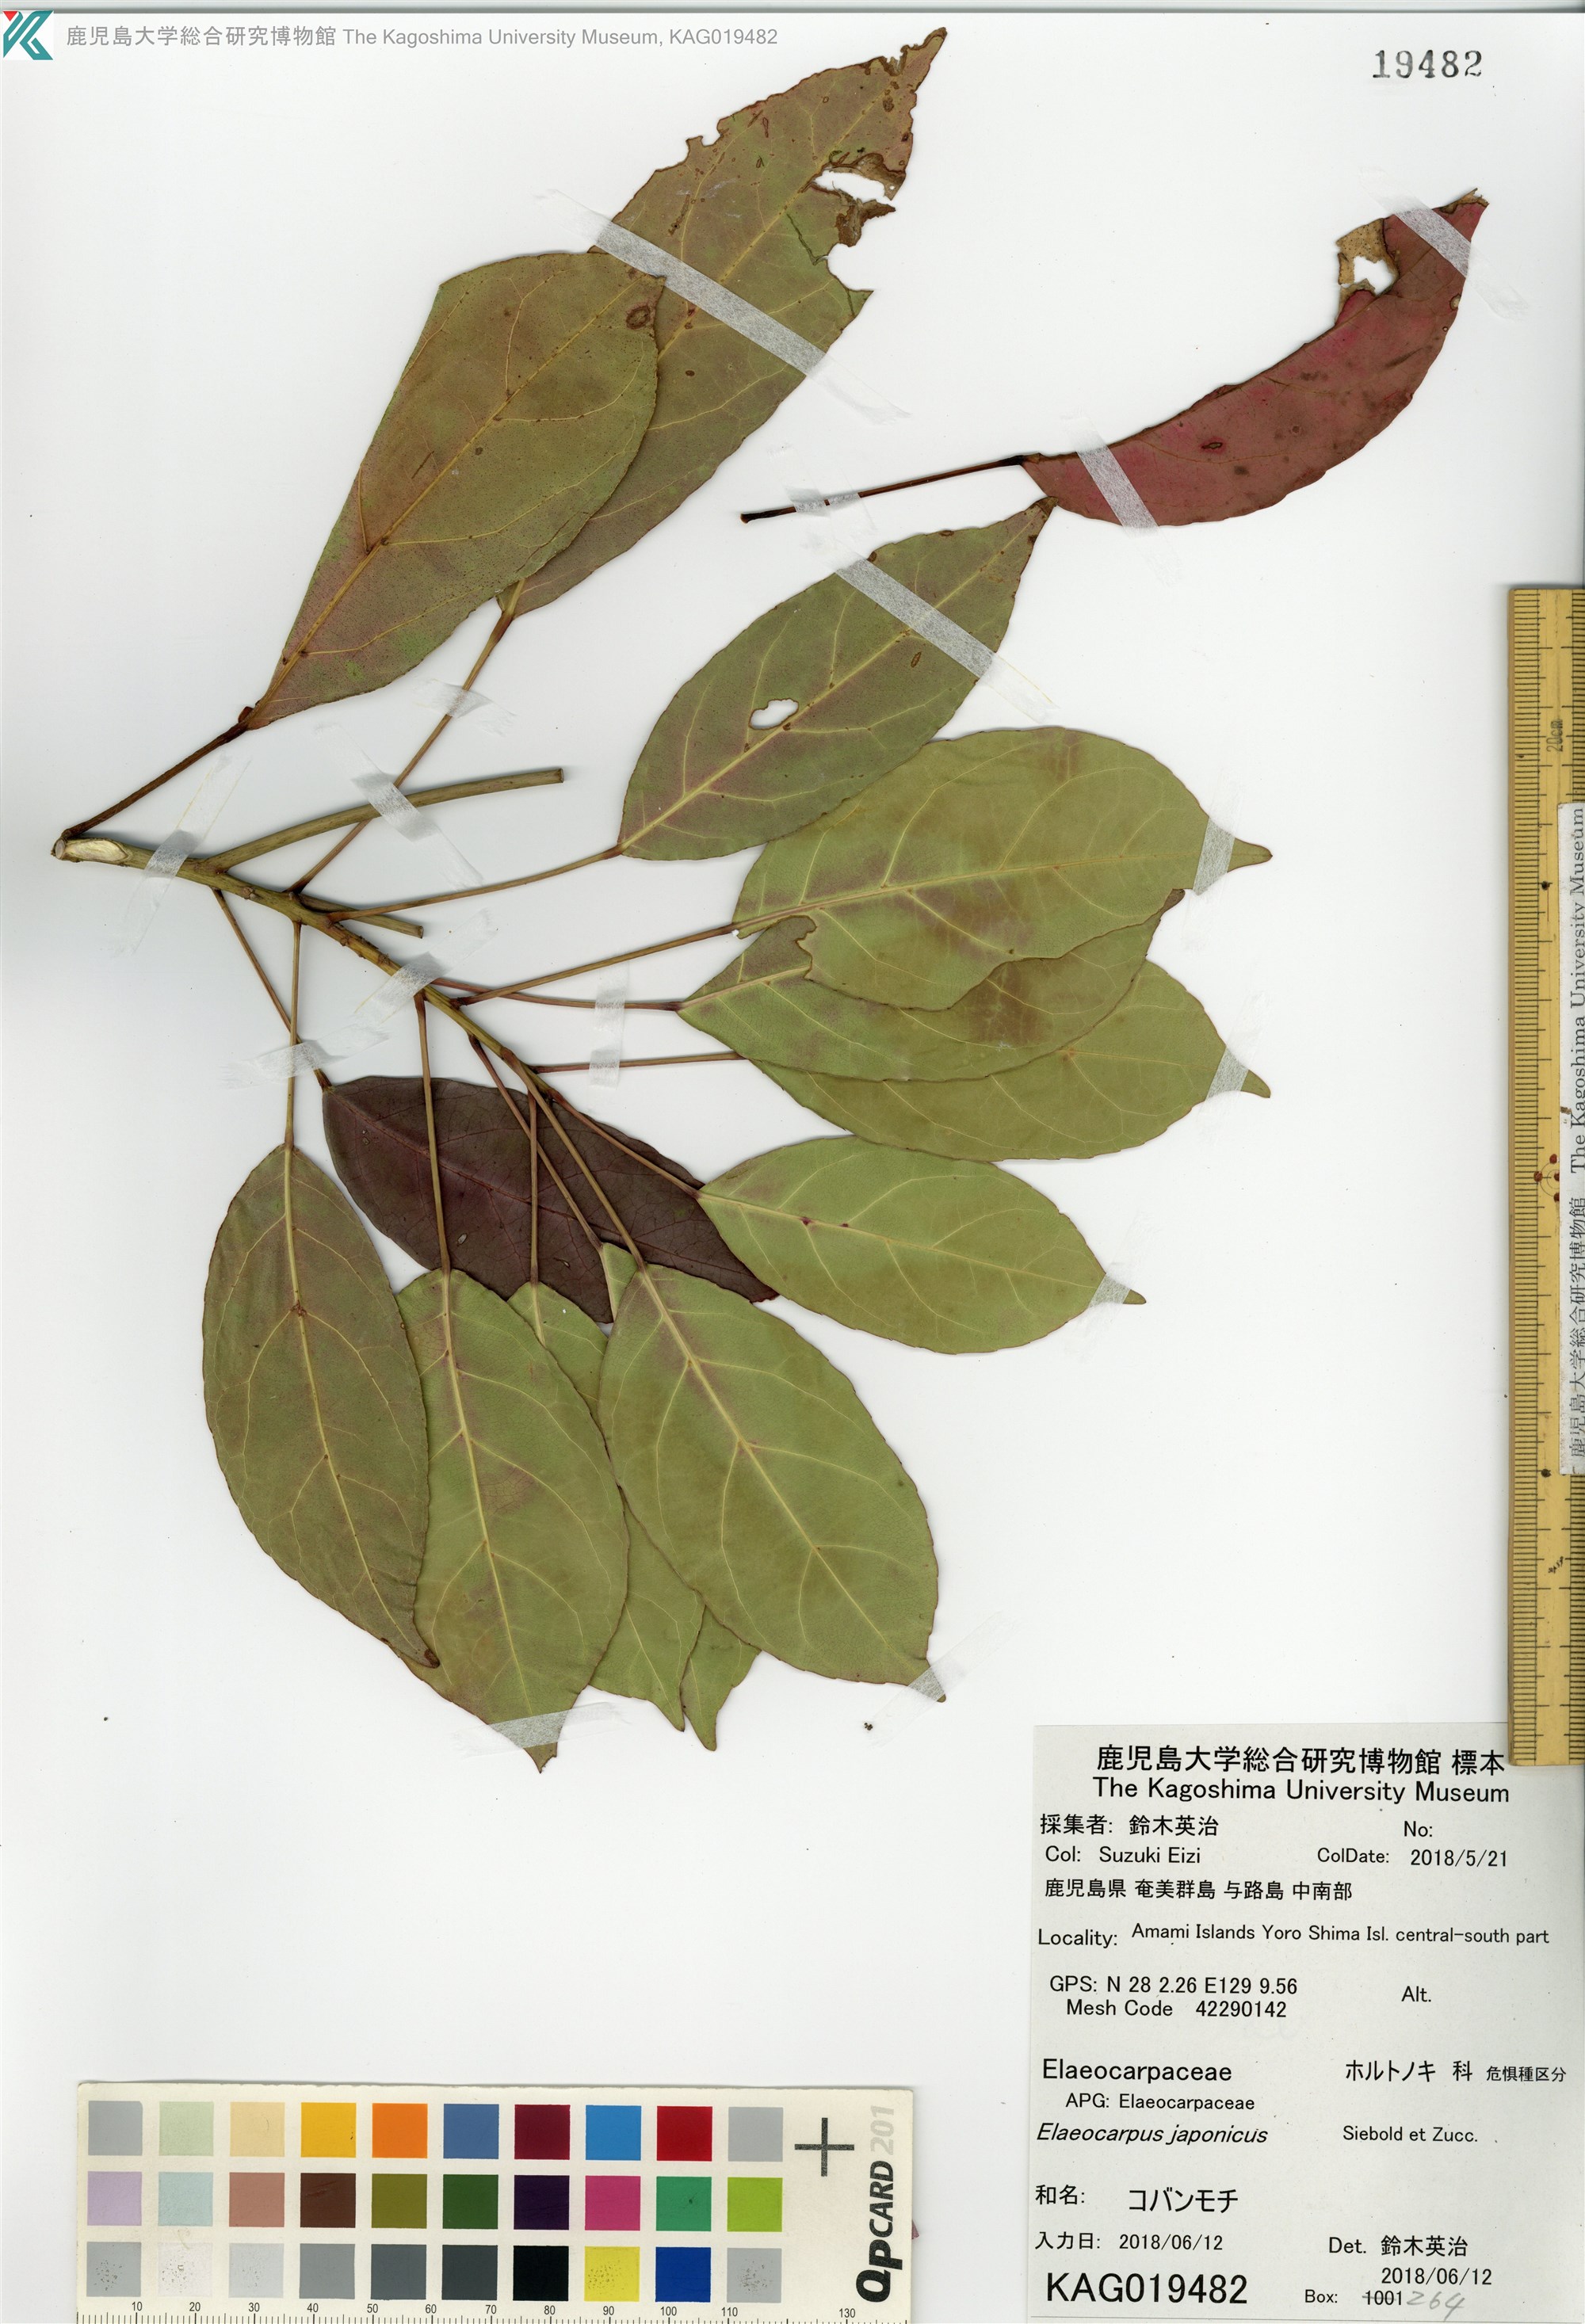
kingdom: Plantae
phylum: Tracheophyta
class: Magnoliopsida
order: Oxalidales
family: Elaeocarpaceae
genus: Elaeocarpus
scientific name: Elaeocarpus japonicus
